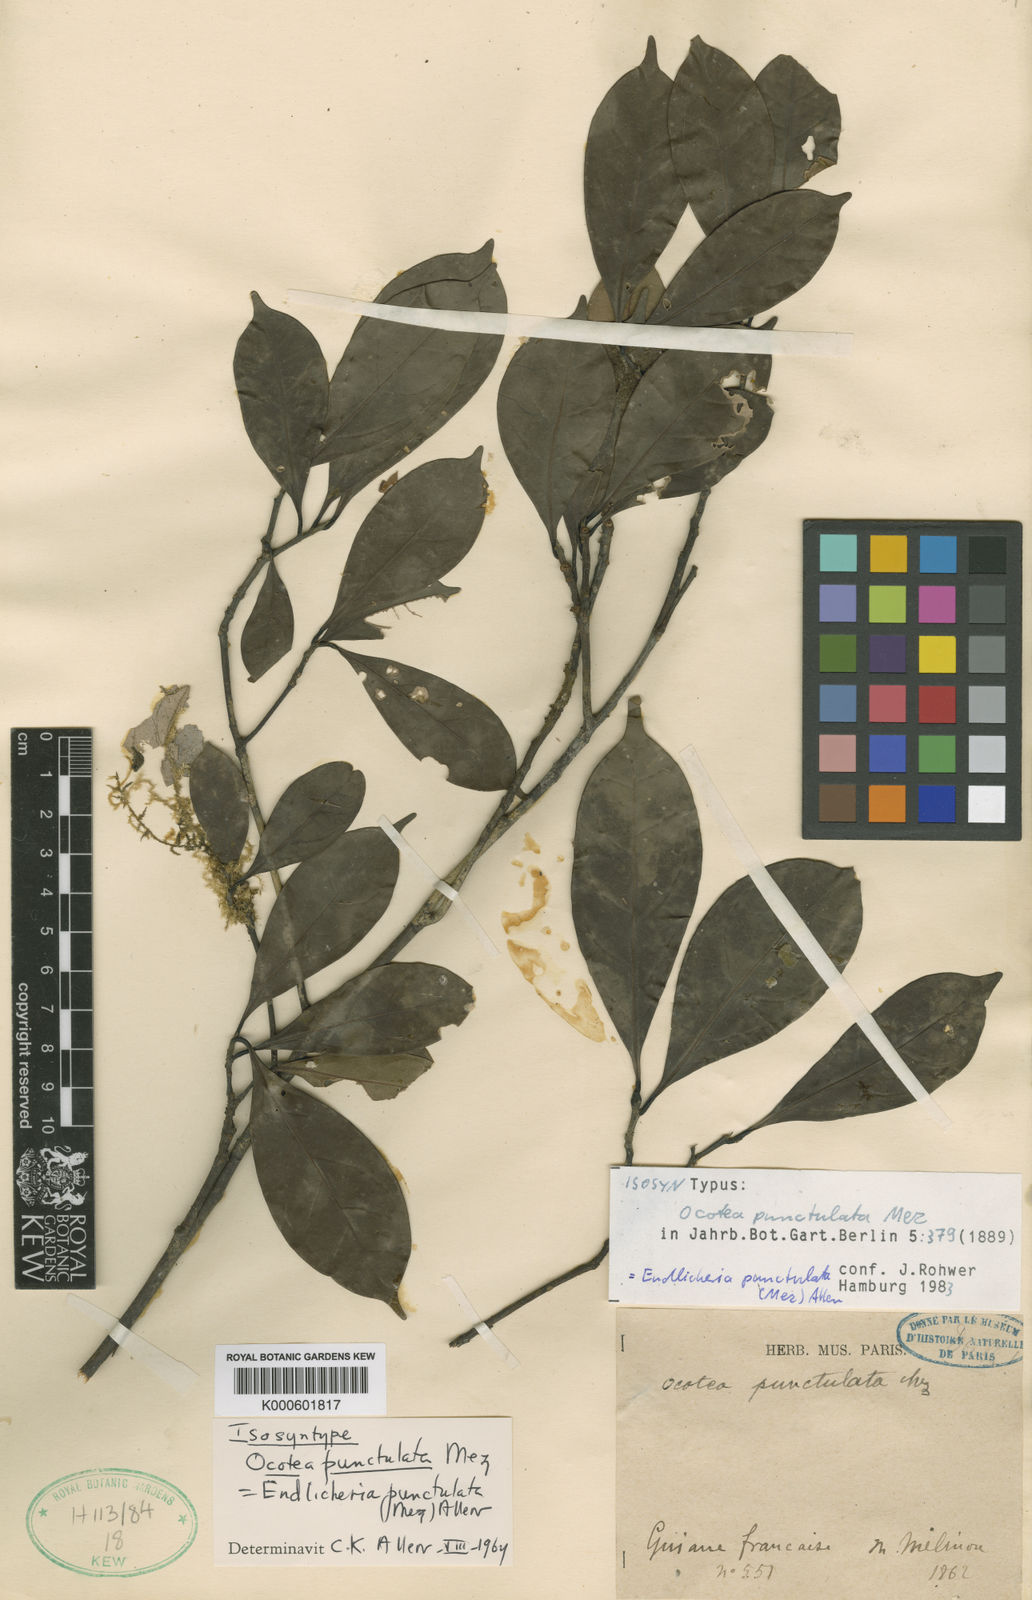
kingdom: Plantae
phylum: Tracheophyta
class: Magnoliopsida
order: Laurales
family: Lauraceae
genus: Endlicheria
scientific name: Endlicheria punctulata
